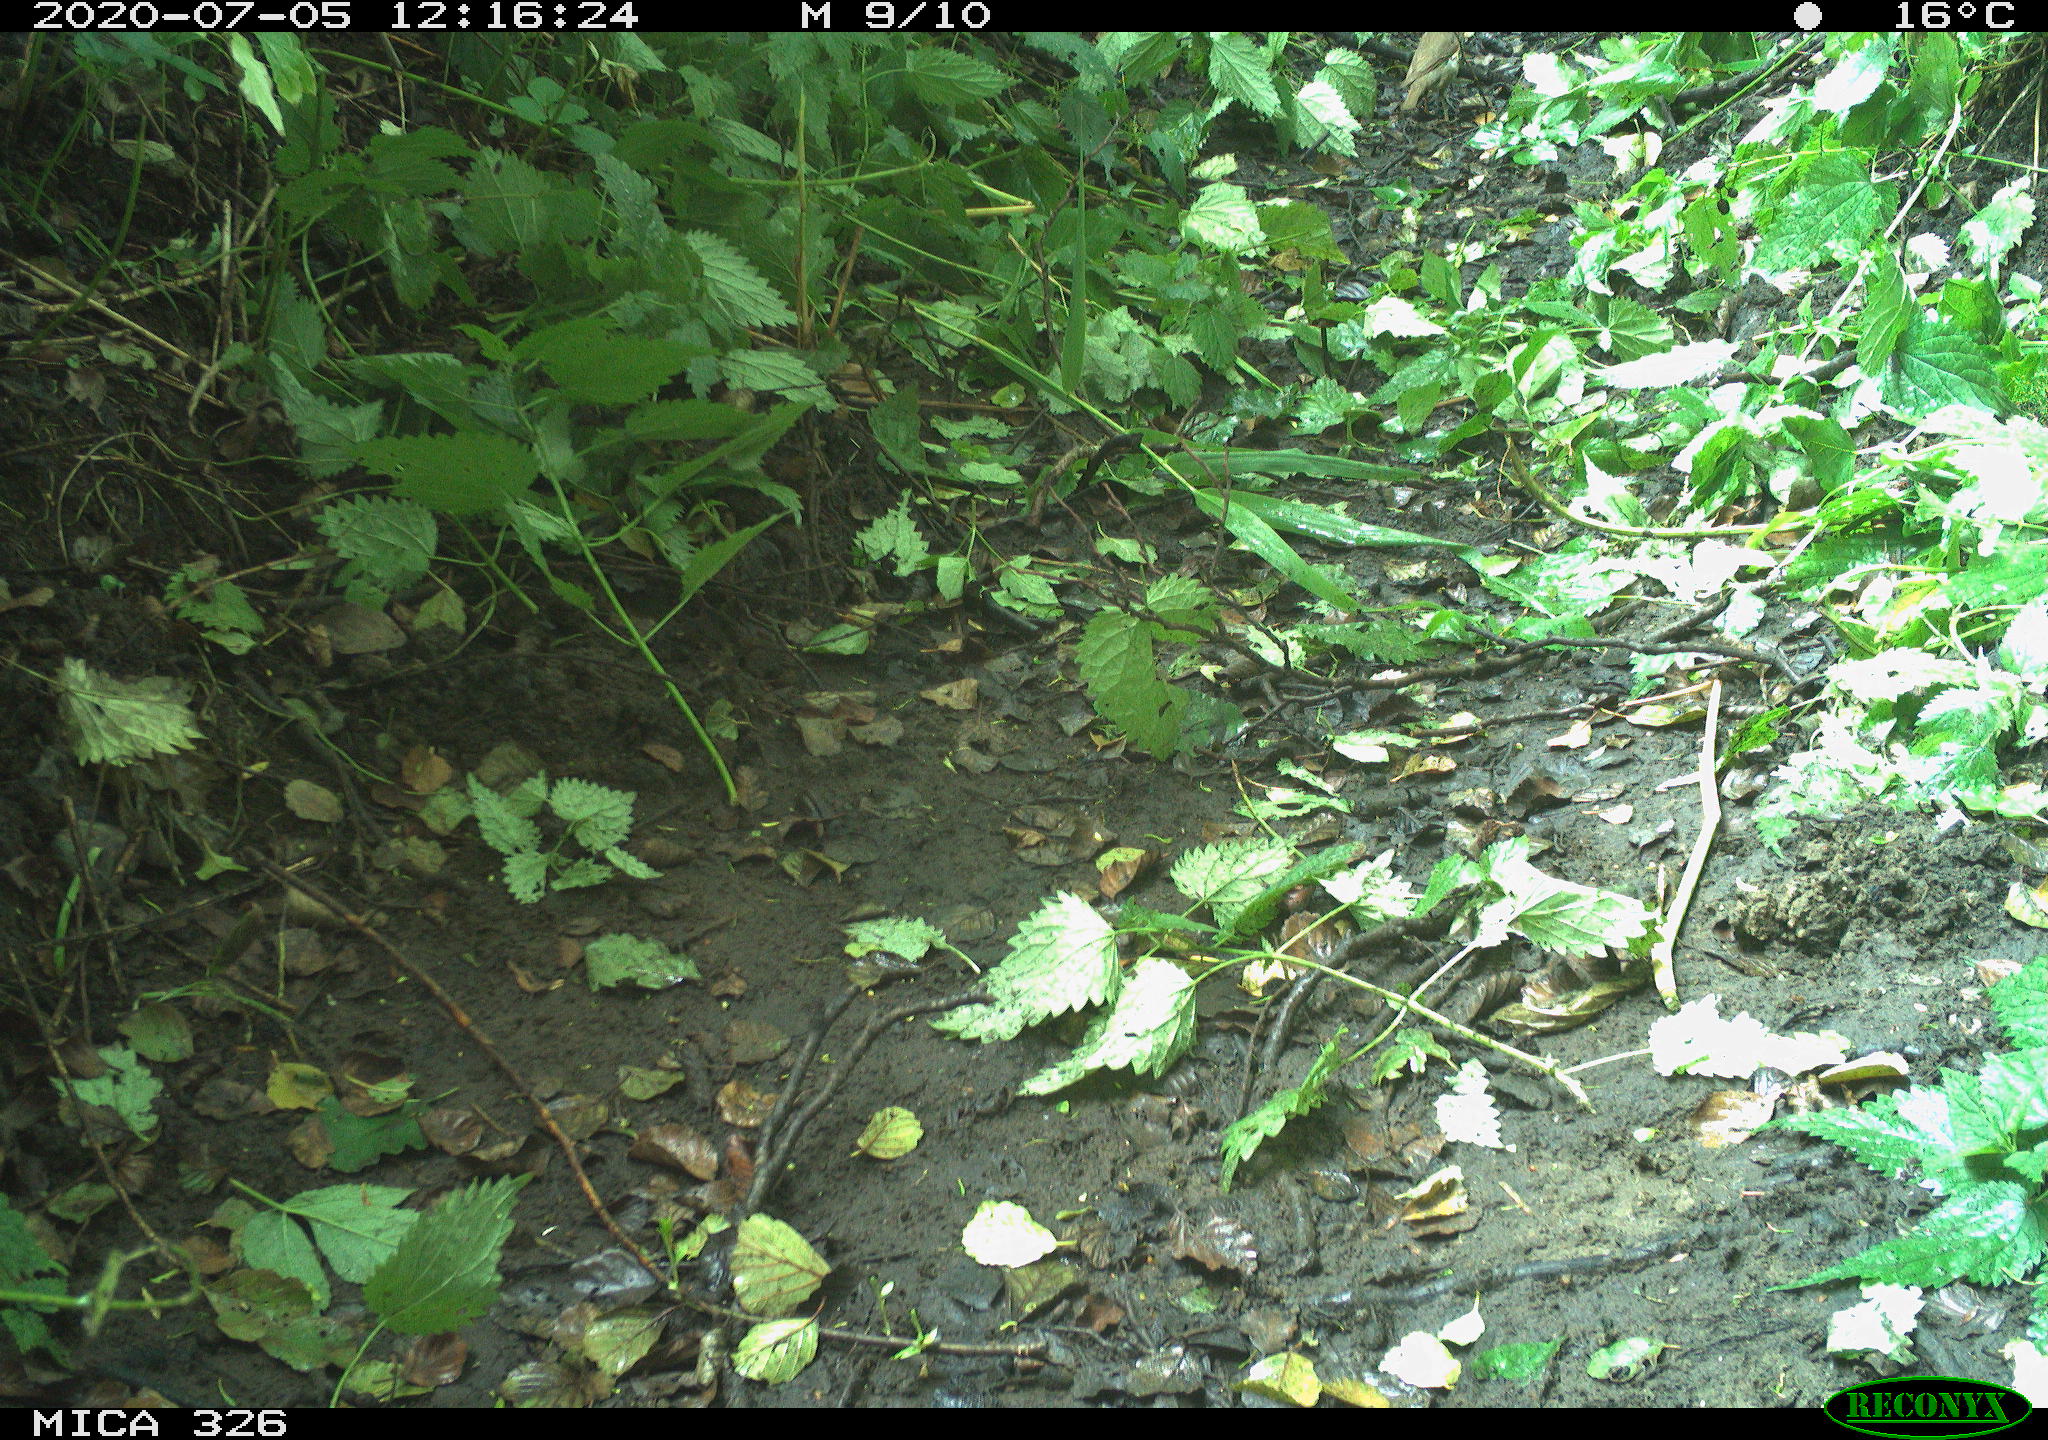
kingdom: Animalia
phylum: Chordata
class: Aves
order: Passeriformes
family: Turdidae
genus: Turdus
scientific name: Turdus philomelos
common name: Song thrush
